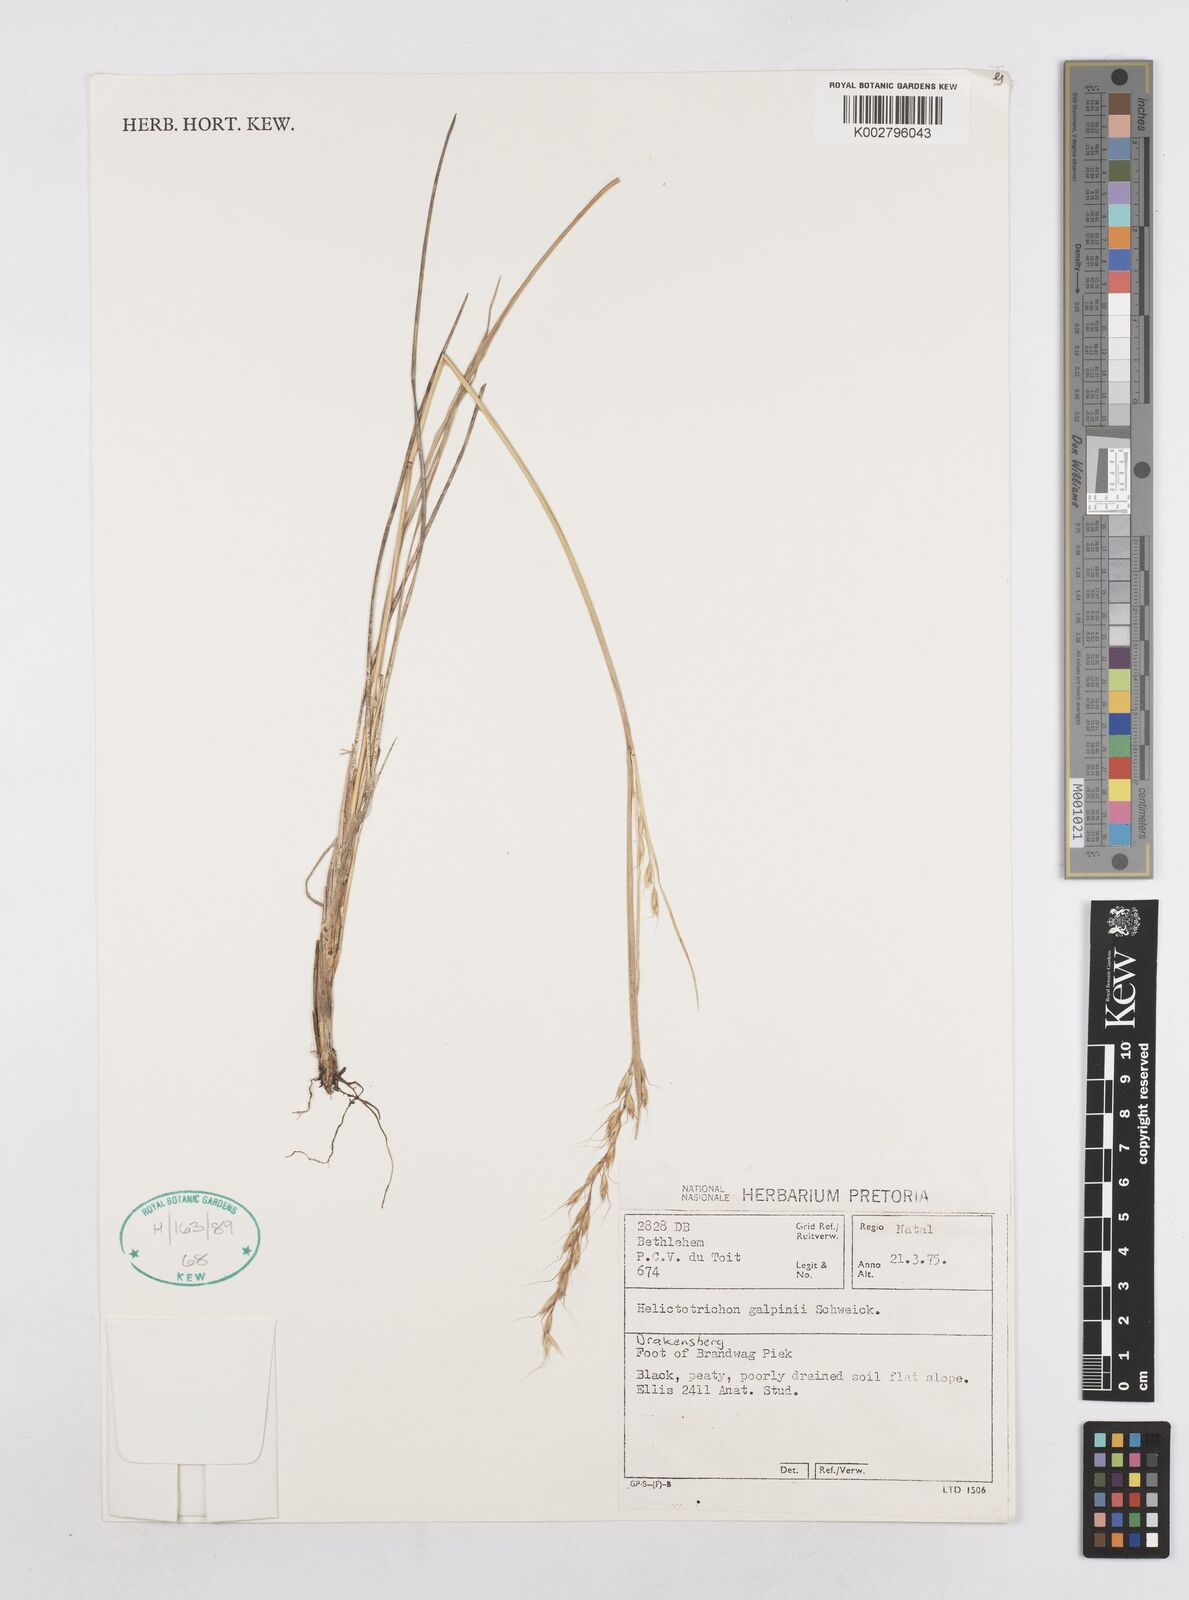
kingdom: Plantae
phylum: Tracheophyta
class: Liliopsida
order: Poales
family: Poaceae
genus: Trisetopsis
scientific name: Trisetopsis galpinii
